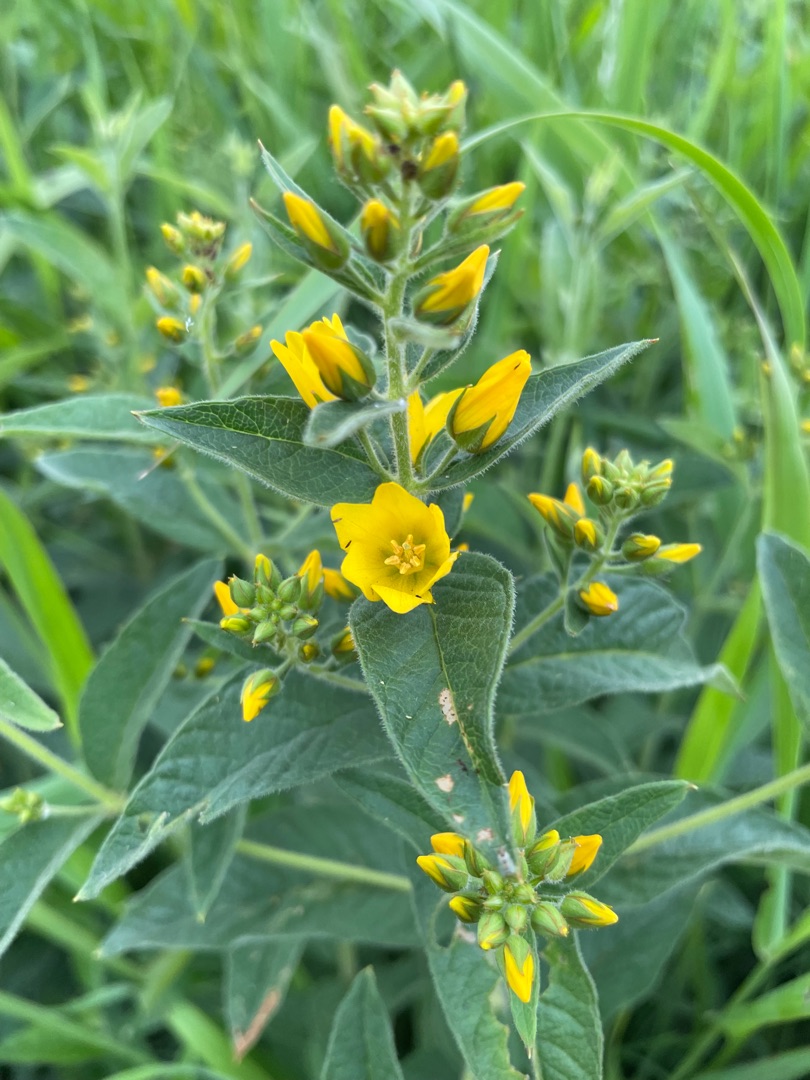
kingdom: Plantae
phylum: Tracheophyta
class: Magnoliopsida
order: Ericales
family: Primulaceae
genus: Lysimachia
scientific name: Lysimachia vulgaris
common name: Almindelig fredløs
